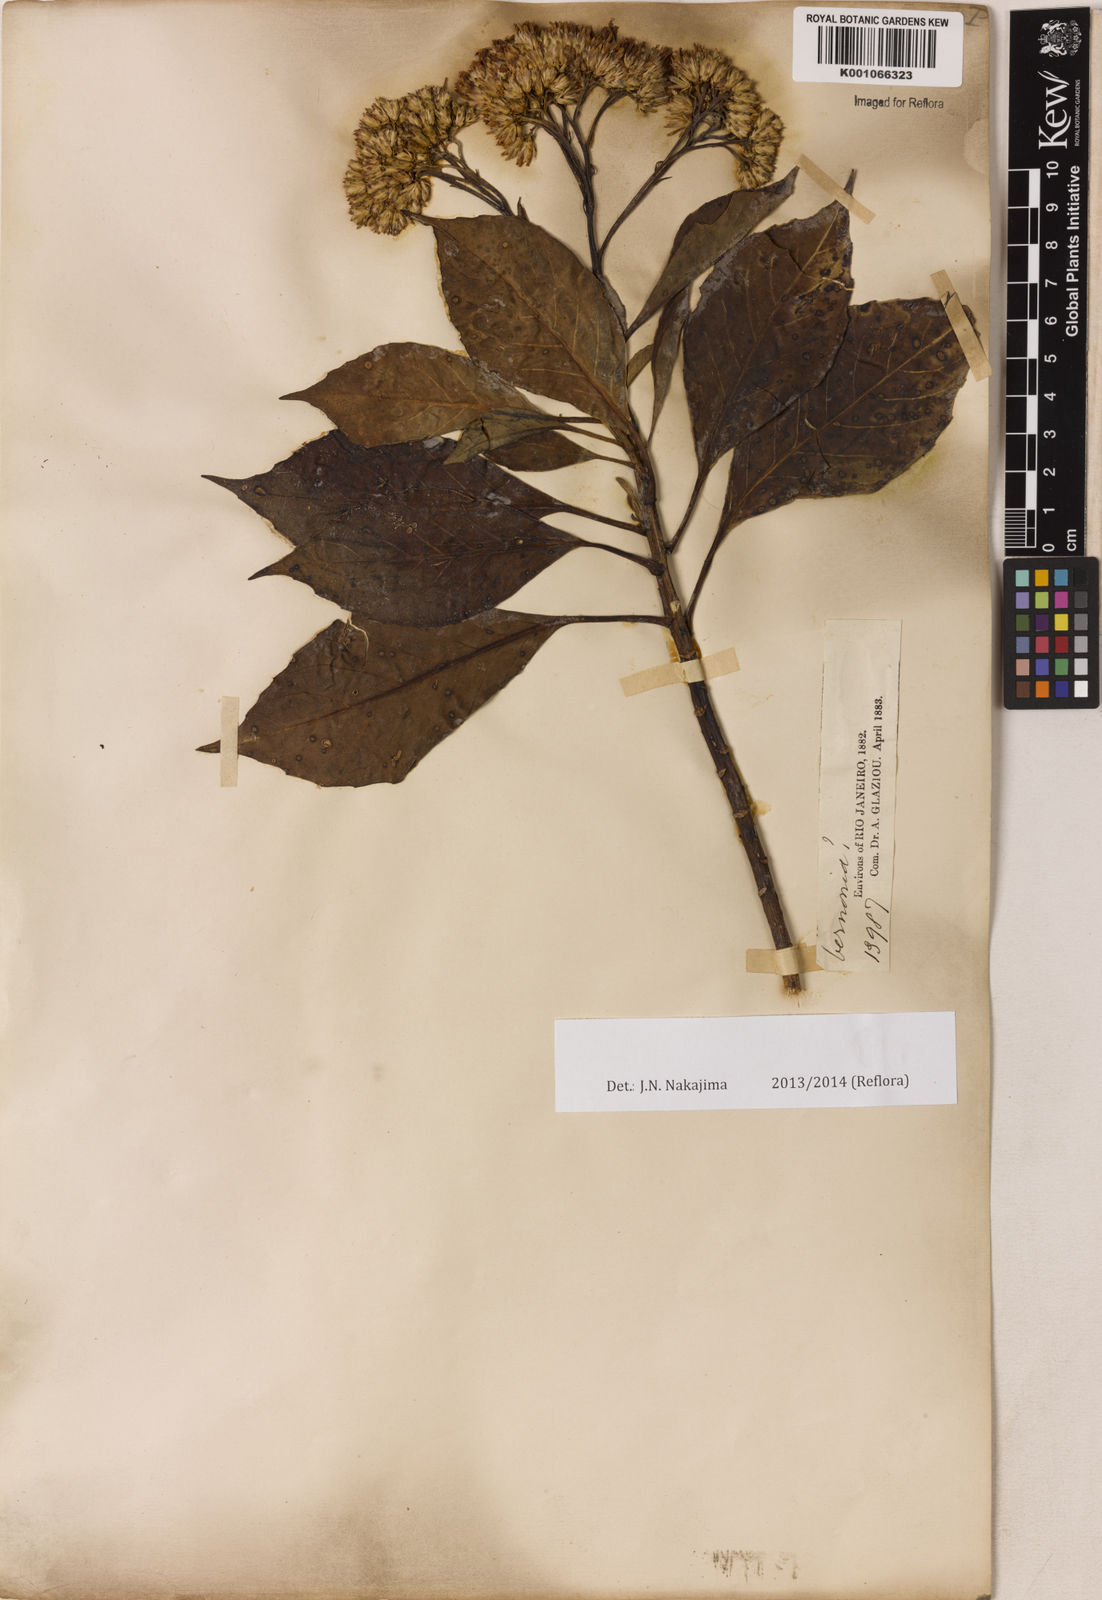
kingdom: Plantae
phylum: Tracheophyta
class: Magnoliopsida
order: Asterales
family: Asteraceae
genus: Gymnanthemum
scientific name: Gymnanthemum amygdalinum
